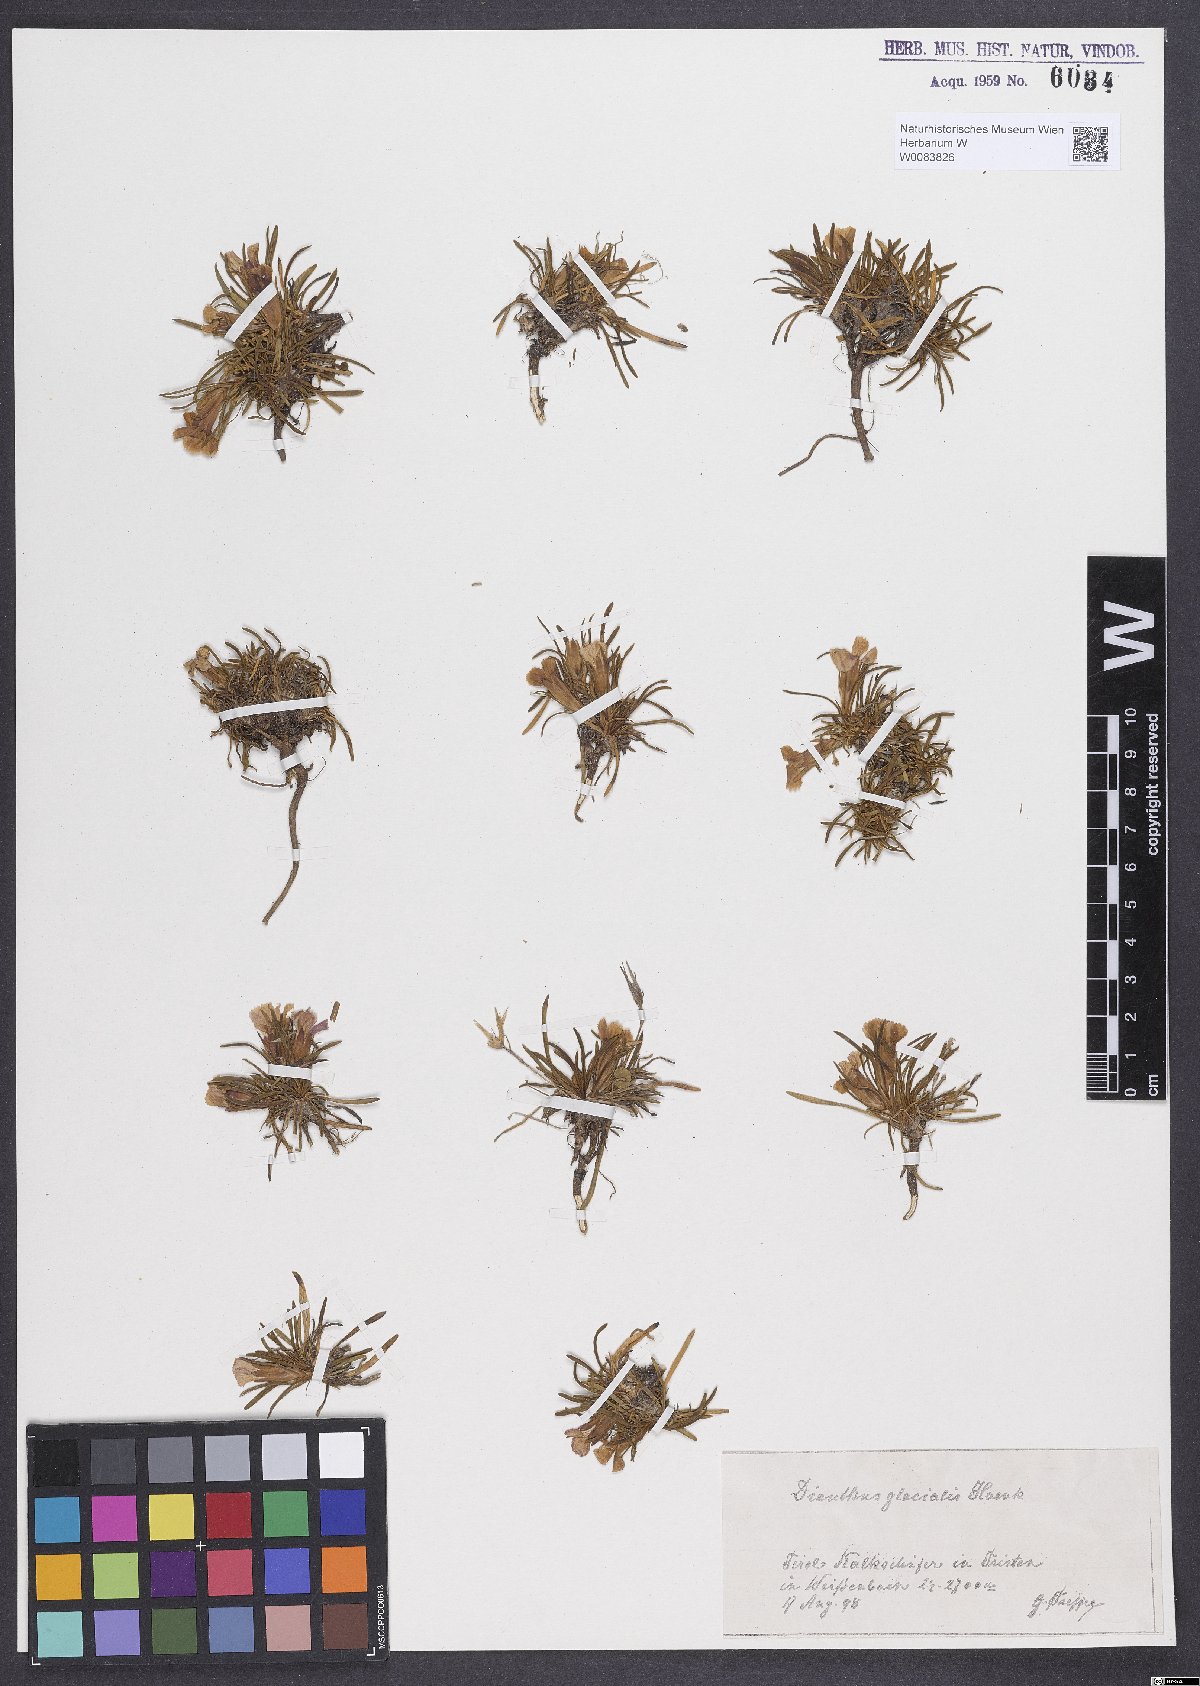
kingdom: Plantae
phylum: Tracheophyta
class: Magnoliopsida
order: Caryophyllales
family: Caryophyllaceae
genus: Dianthus
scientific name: Dianthus glacialis
